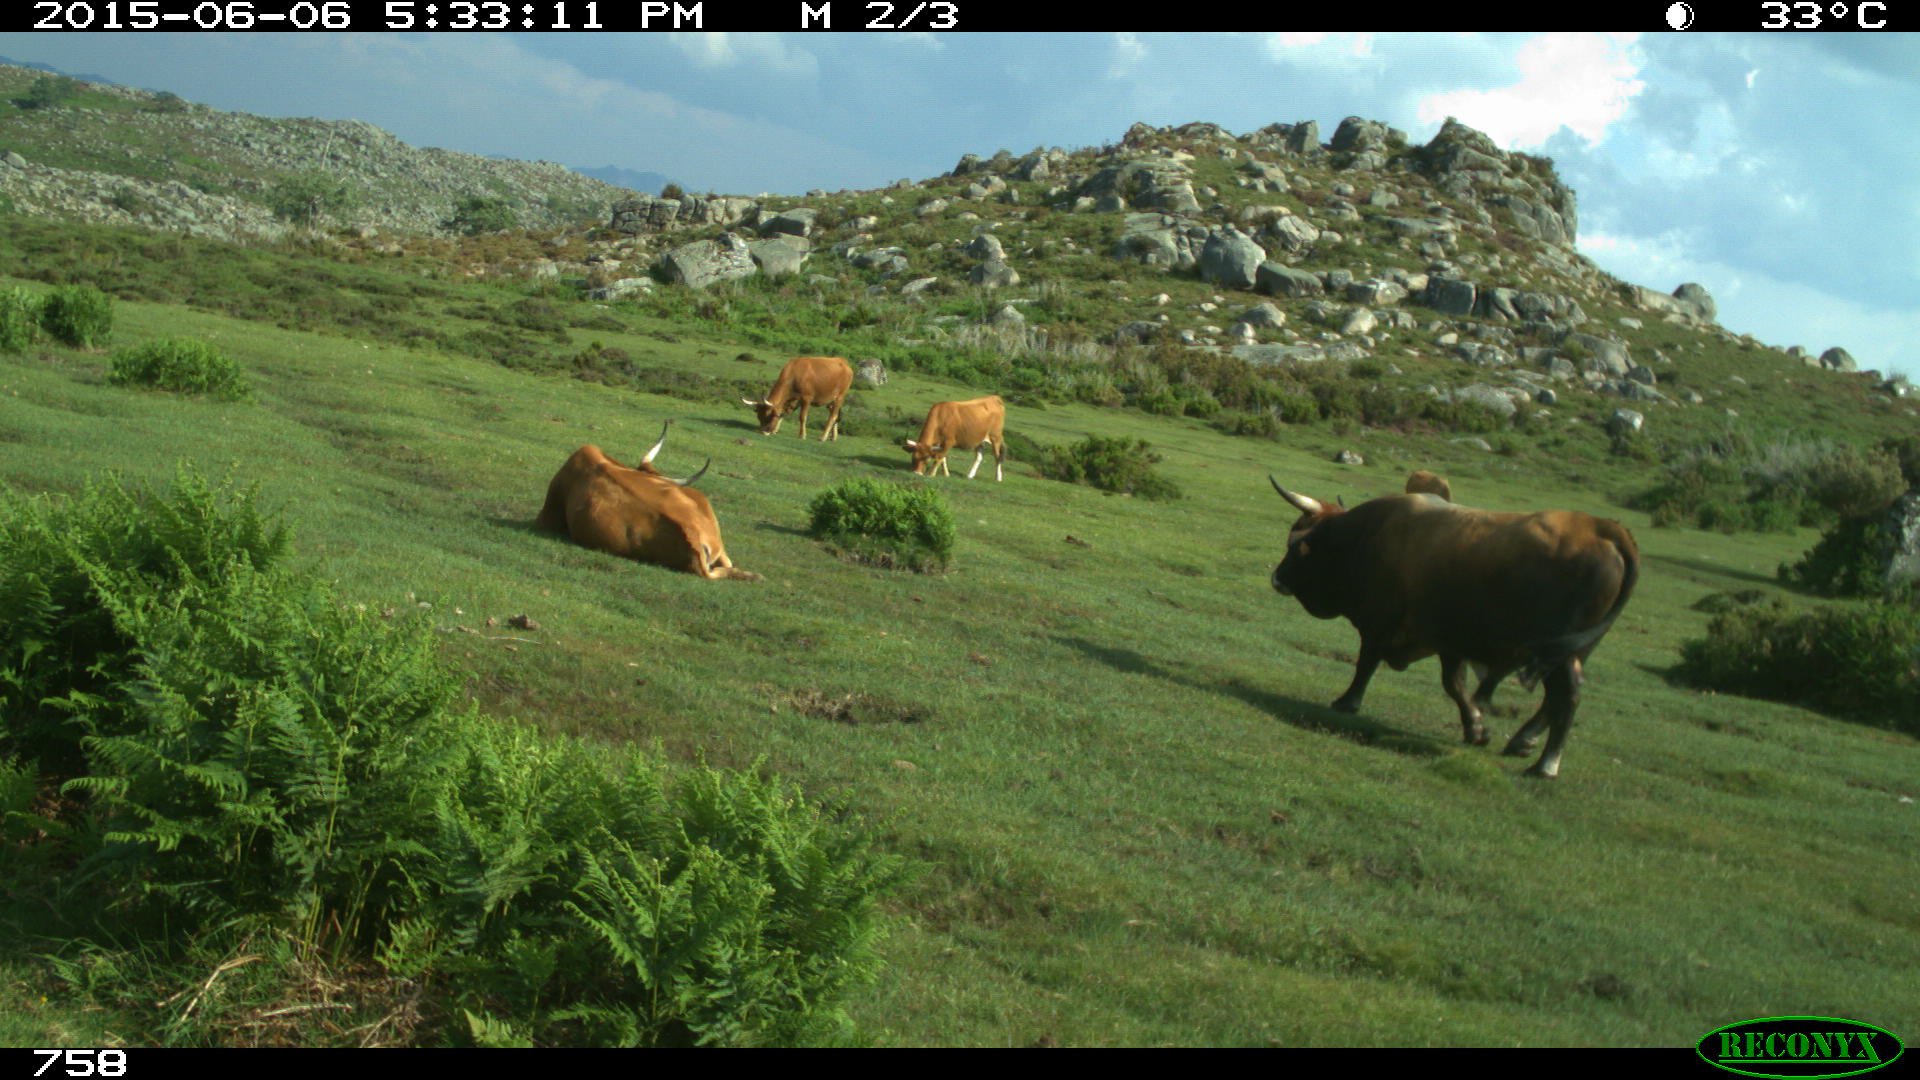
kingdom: Animalia
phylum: Chordata
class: Mammalia
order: Artiodactyla
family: Bovidae
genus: Bos
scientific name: Bos taurus
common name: Domesticated cattle
